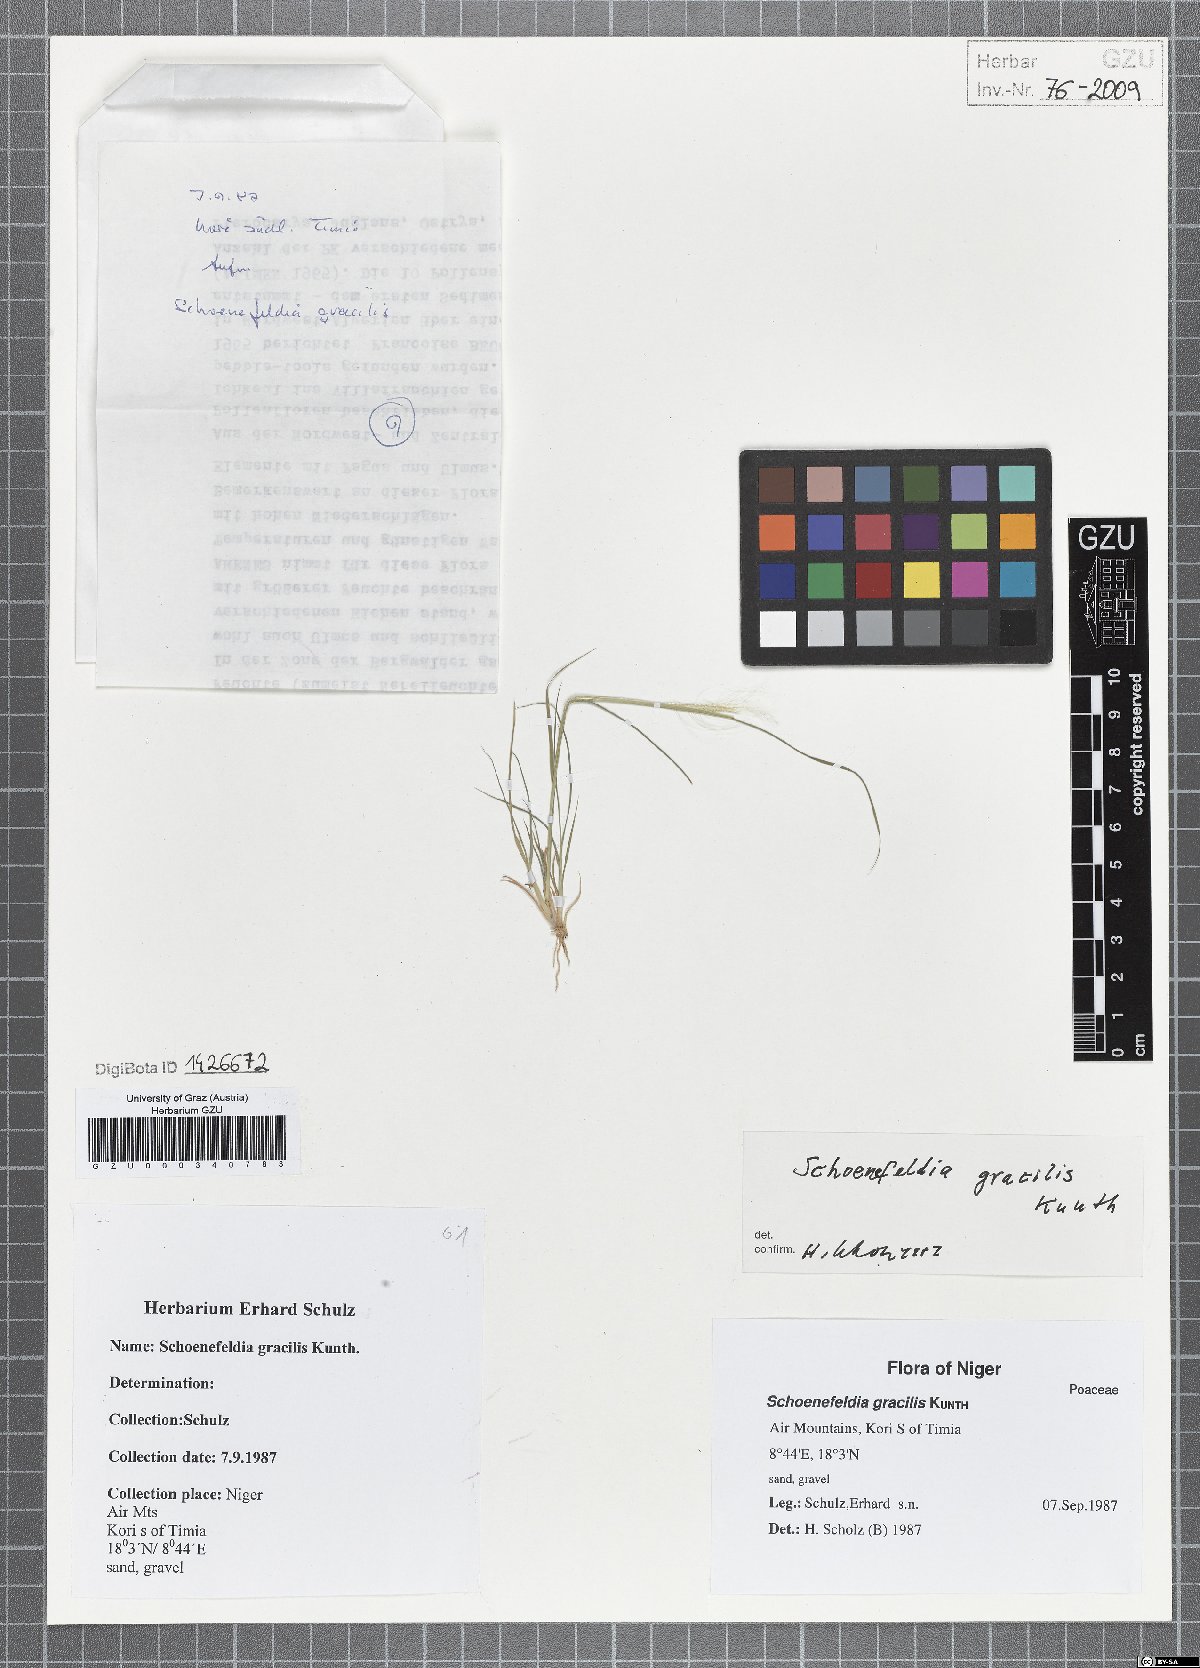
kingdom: Plantae
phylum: Tracheophyta
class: Liliopsida
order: Poales
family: Poaceae
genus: Schoenefeldia
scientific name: Schoenefeldia gracilis
